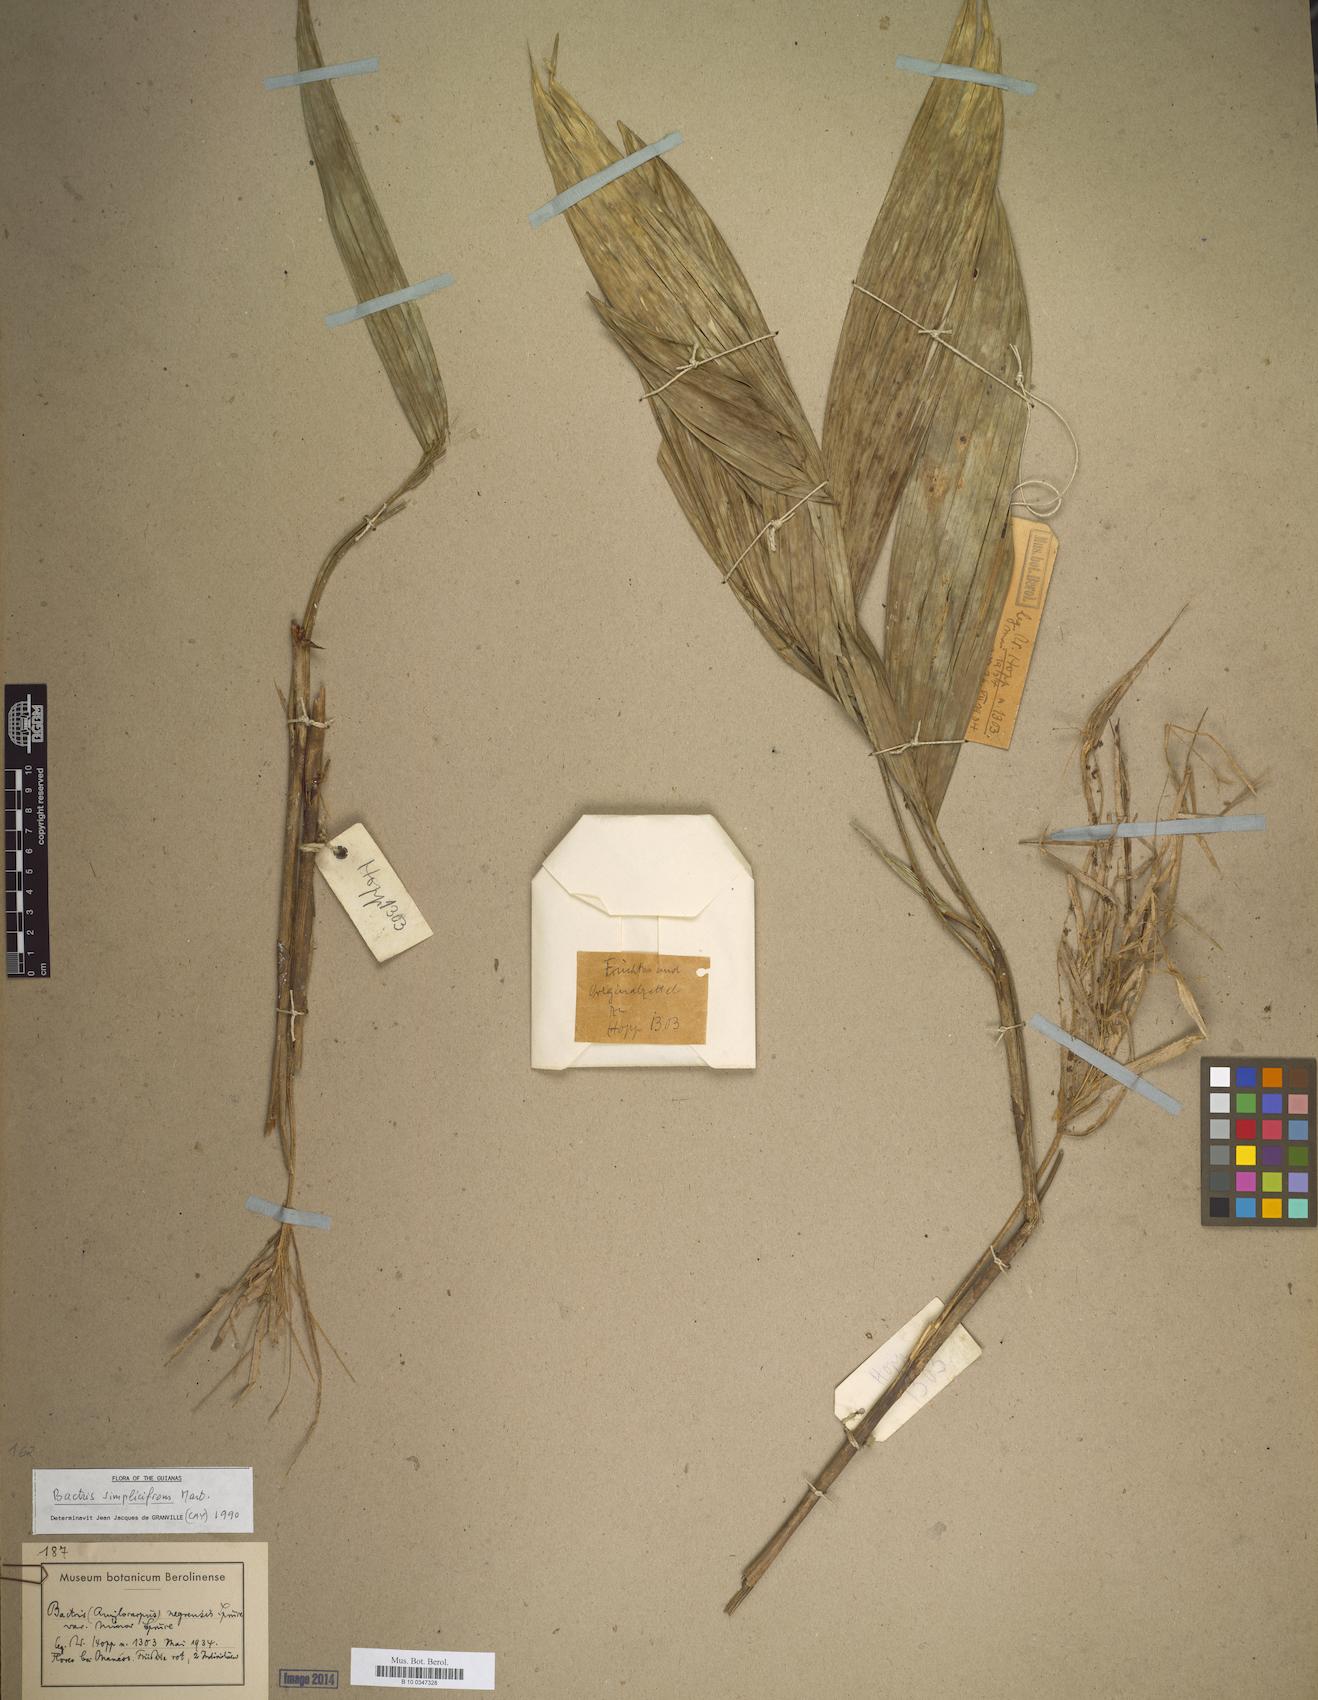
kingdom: Plantae
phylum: Tracheophyta
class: Liliopsida
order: Arecales
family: Arecaceae
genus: Bactris
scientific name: Bactris simplicifrons
